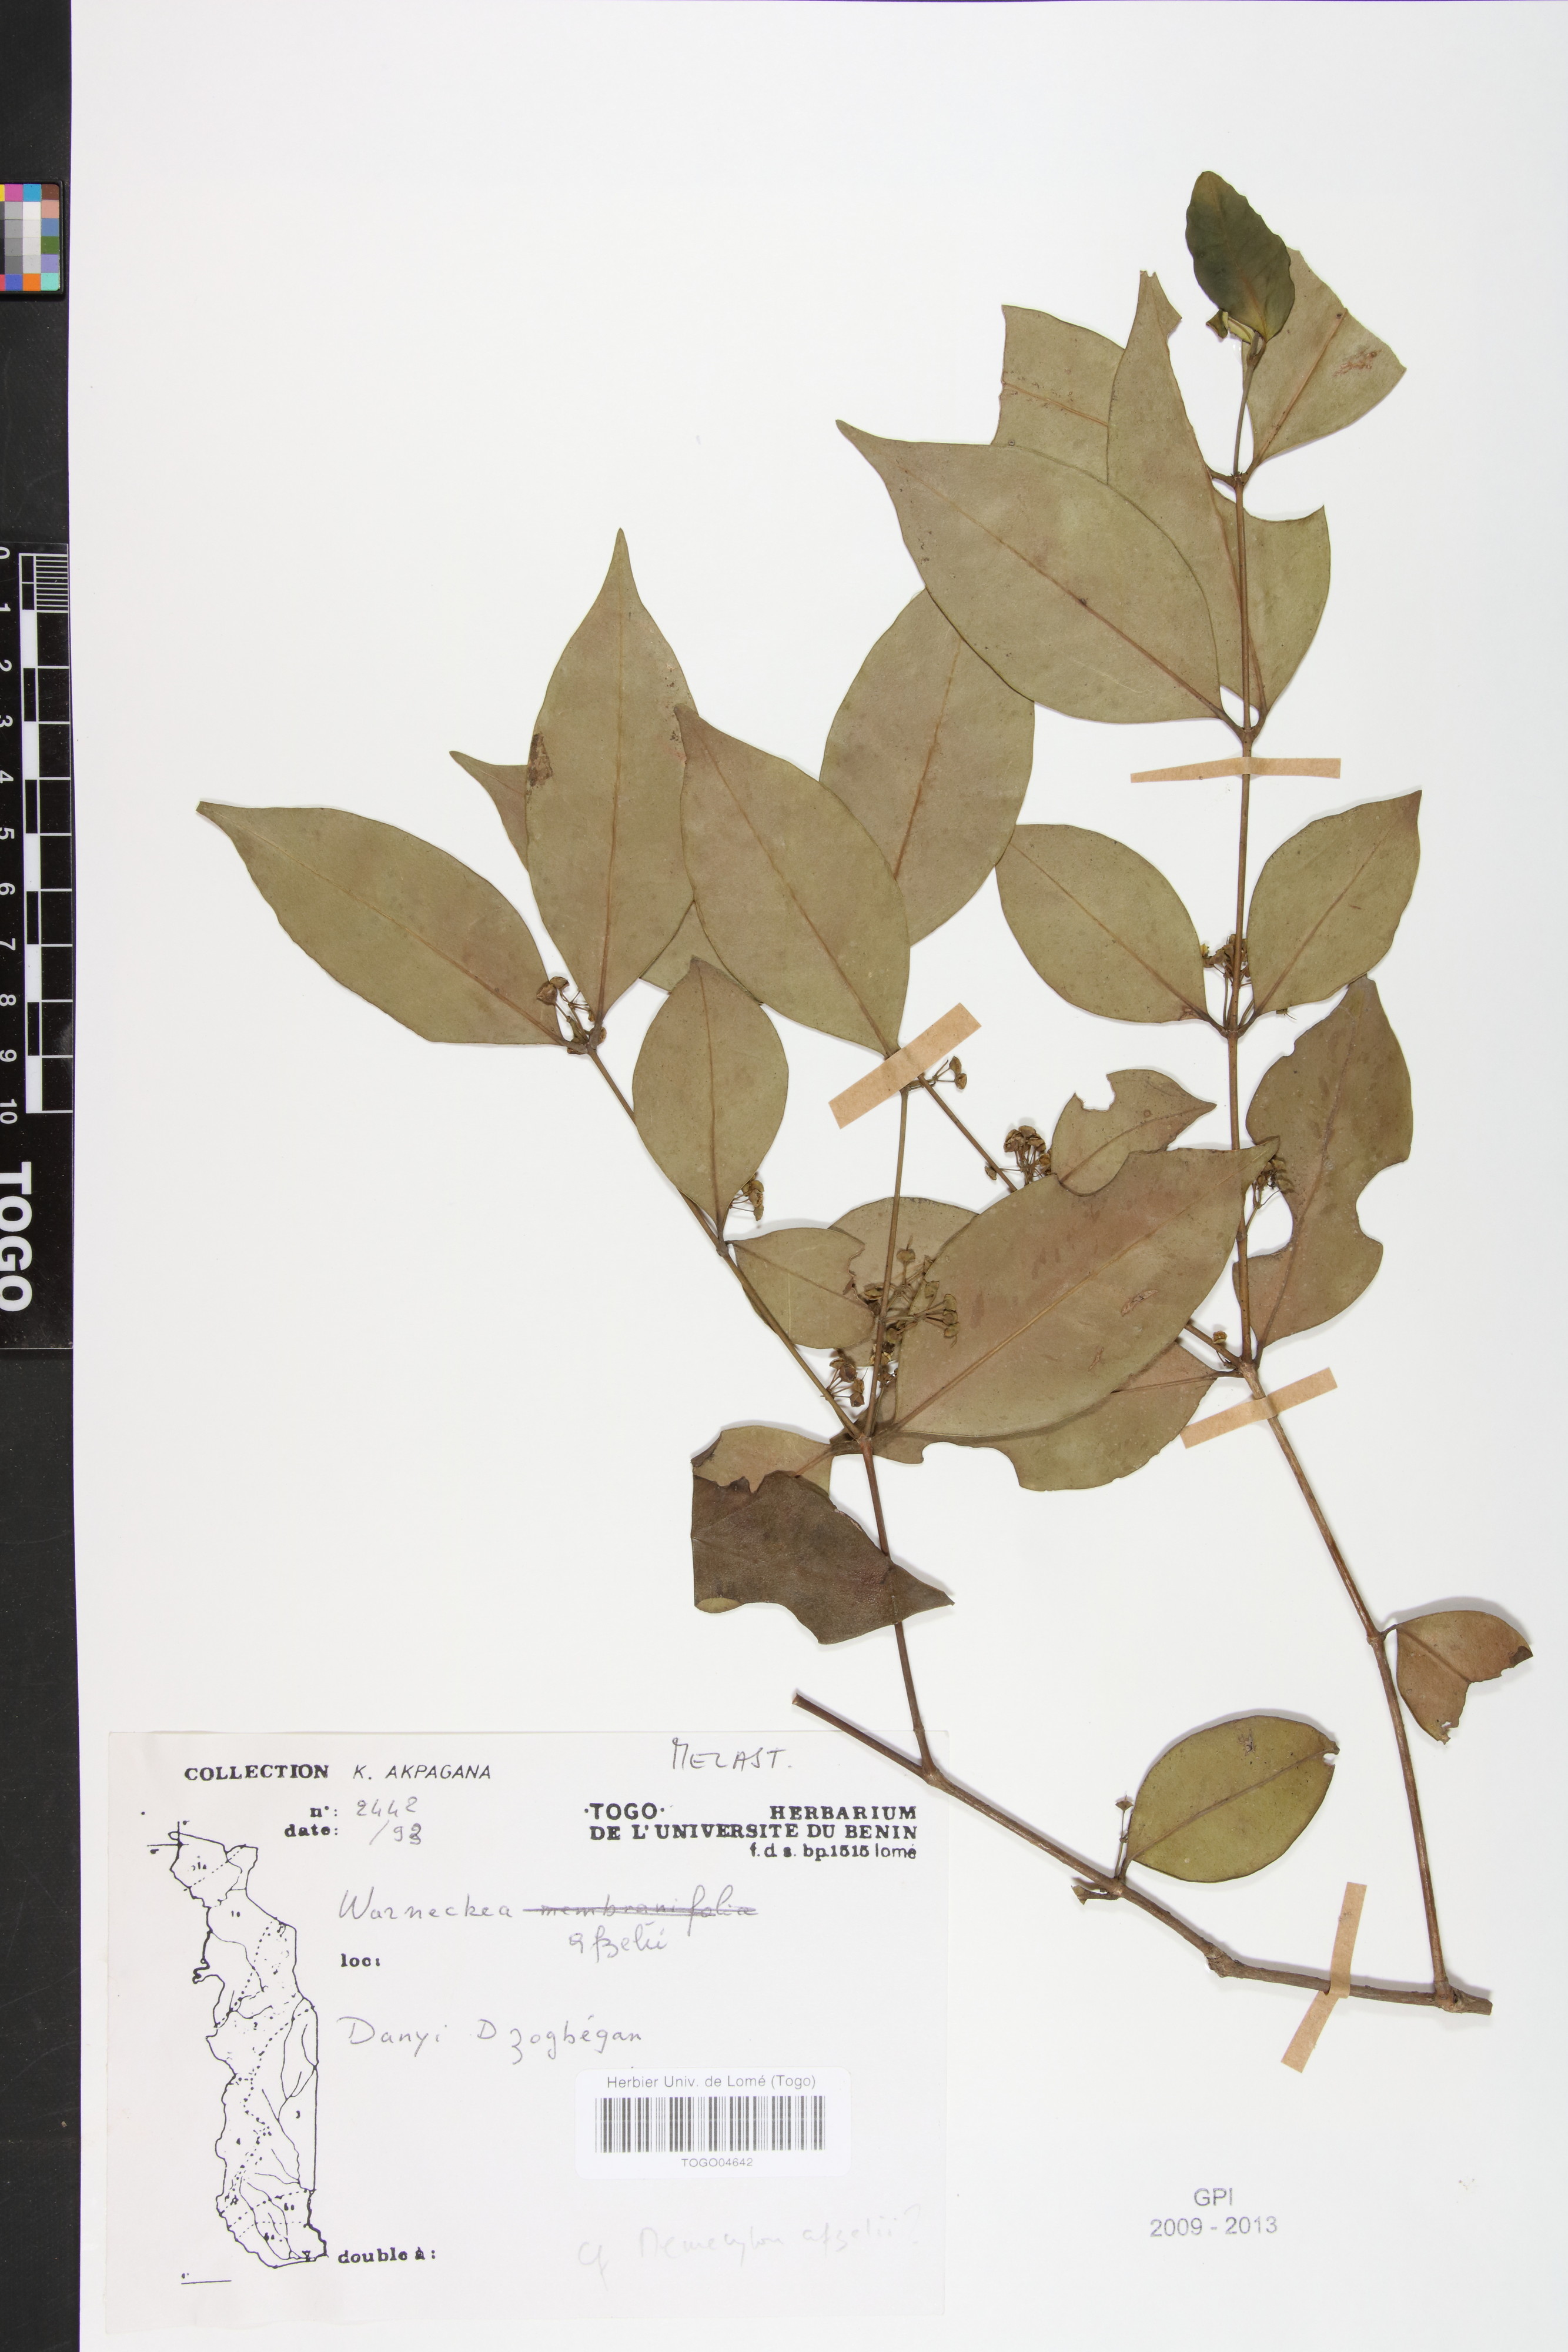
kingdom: Plantae
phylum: Tracheophyta
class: Magnoliopsida
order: Myrtales
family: Melastomataceae
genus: Warneckea
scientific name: Warneckea
